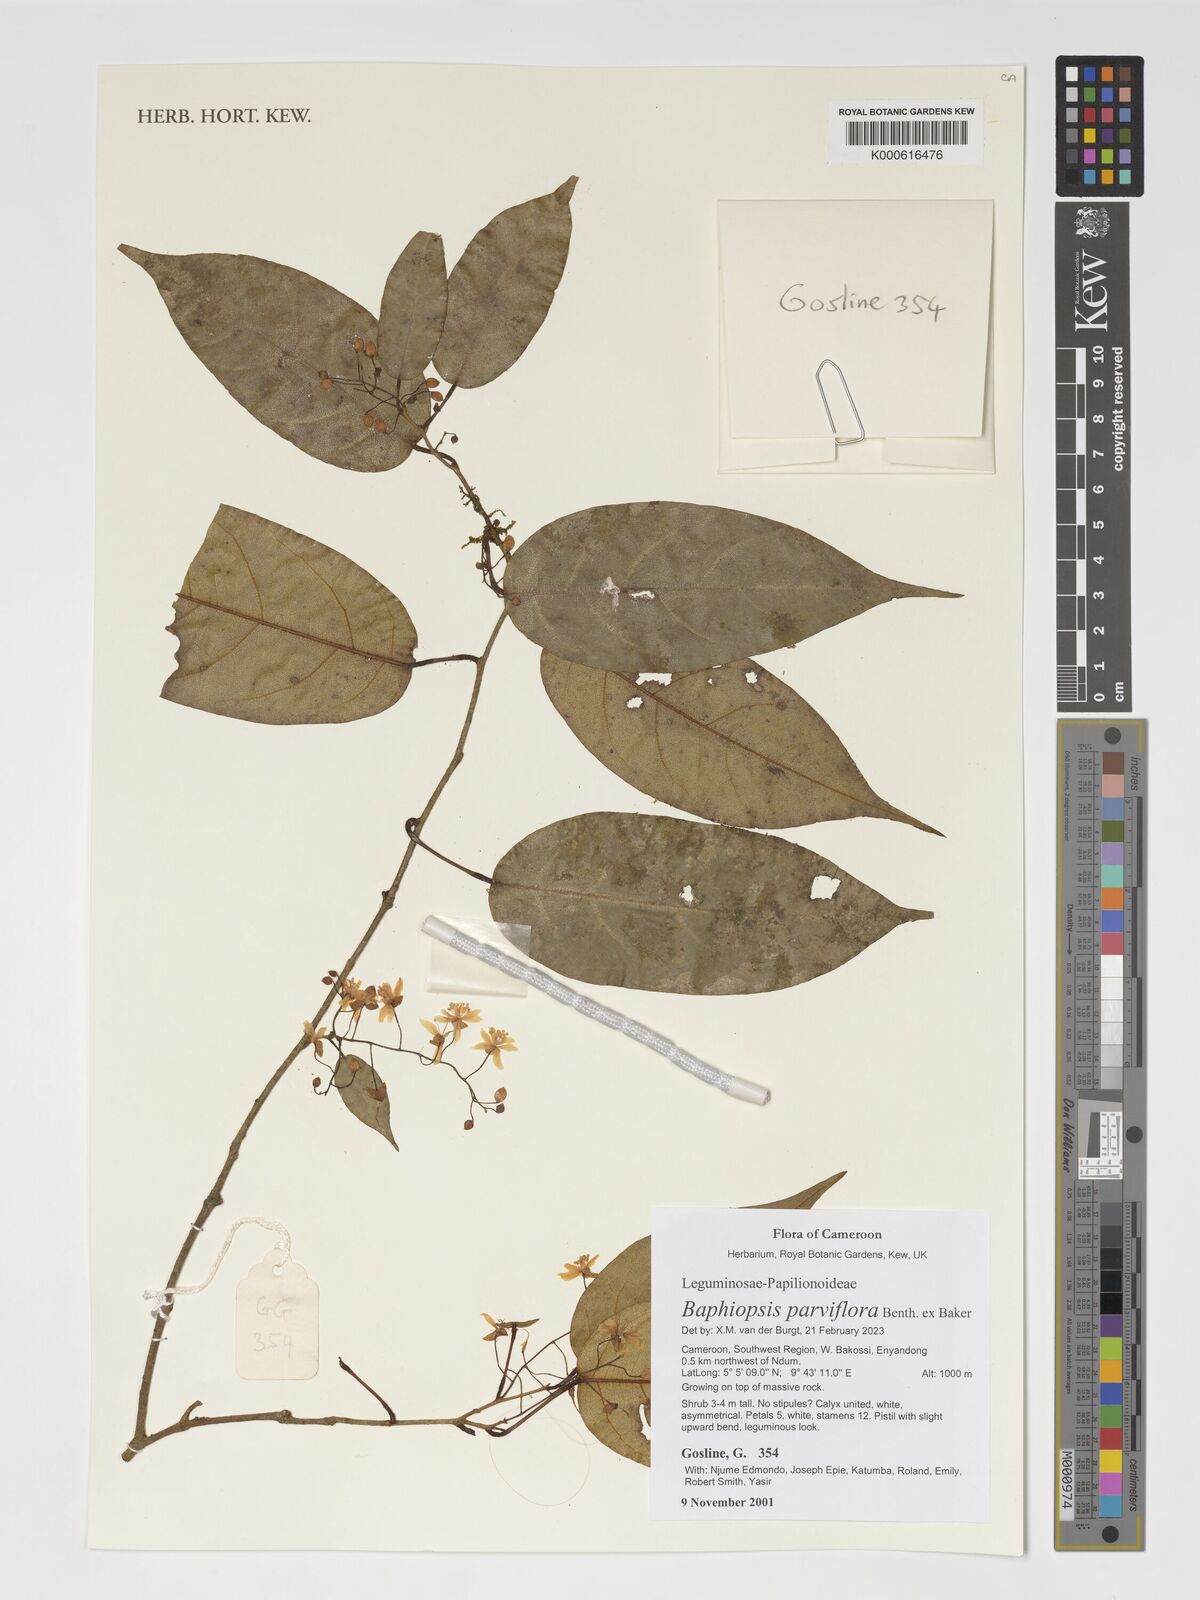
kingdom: Plantae
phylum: Tracheophyta
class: Magnoliopsida
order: Fabales
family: Fabaceae
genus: Baphiopsis
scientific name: Baphiopsis parviflora
